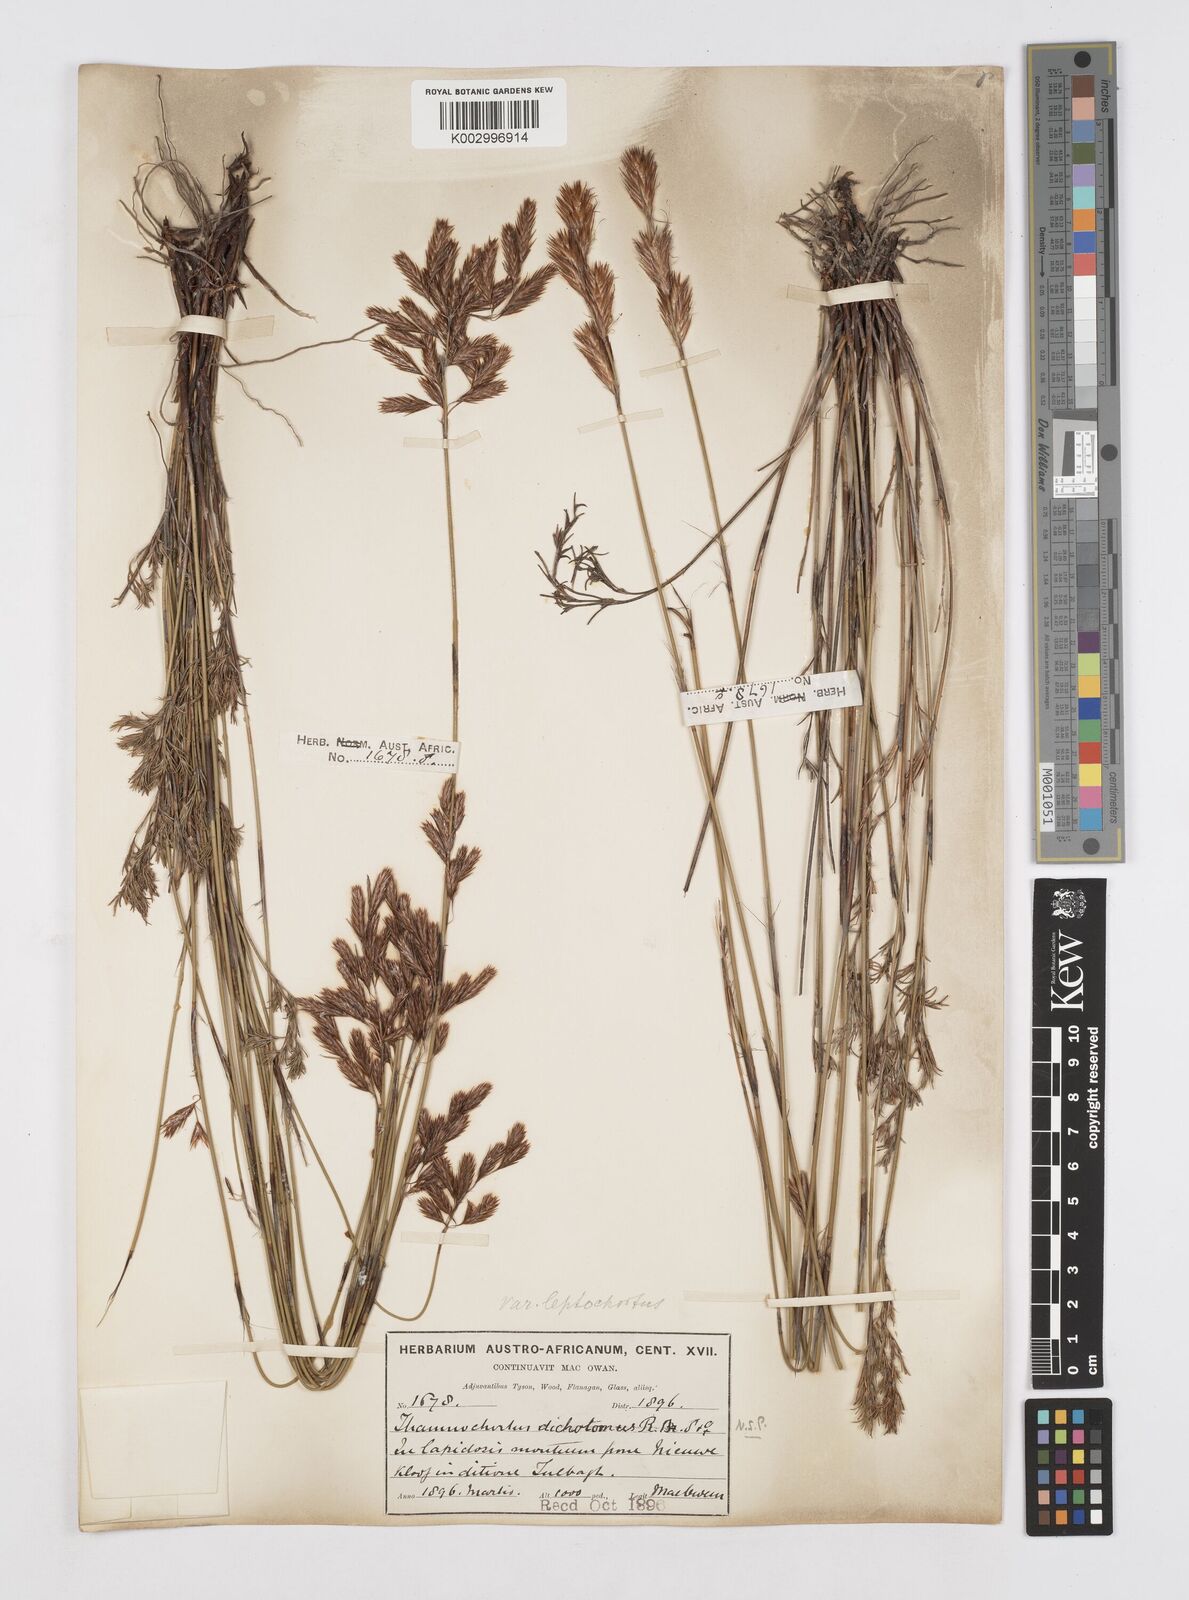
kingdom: Plantae
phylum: Tracheophyta
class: Liliopsida
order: Poales
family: Restionaceae
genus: Thamnochortus
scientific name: Thamnochortus lucens
